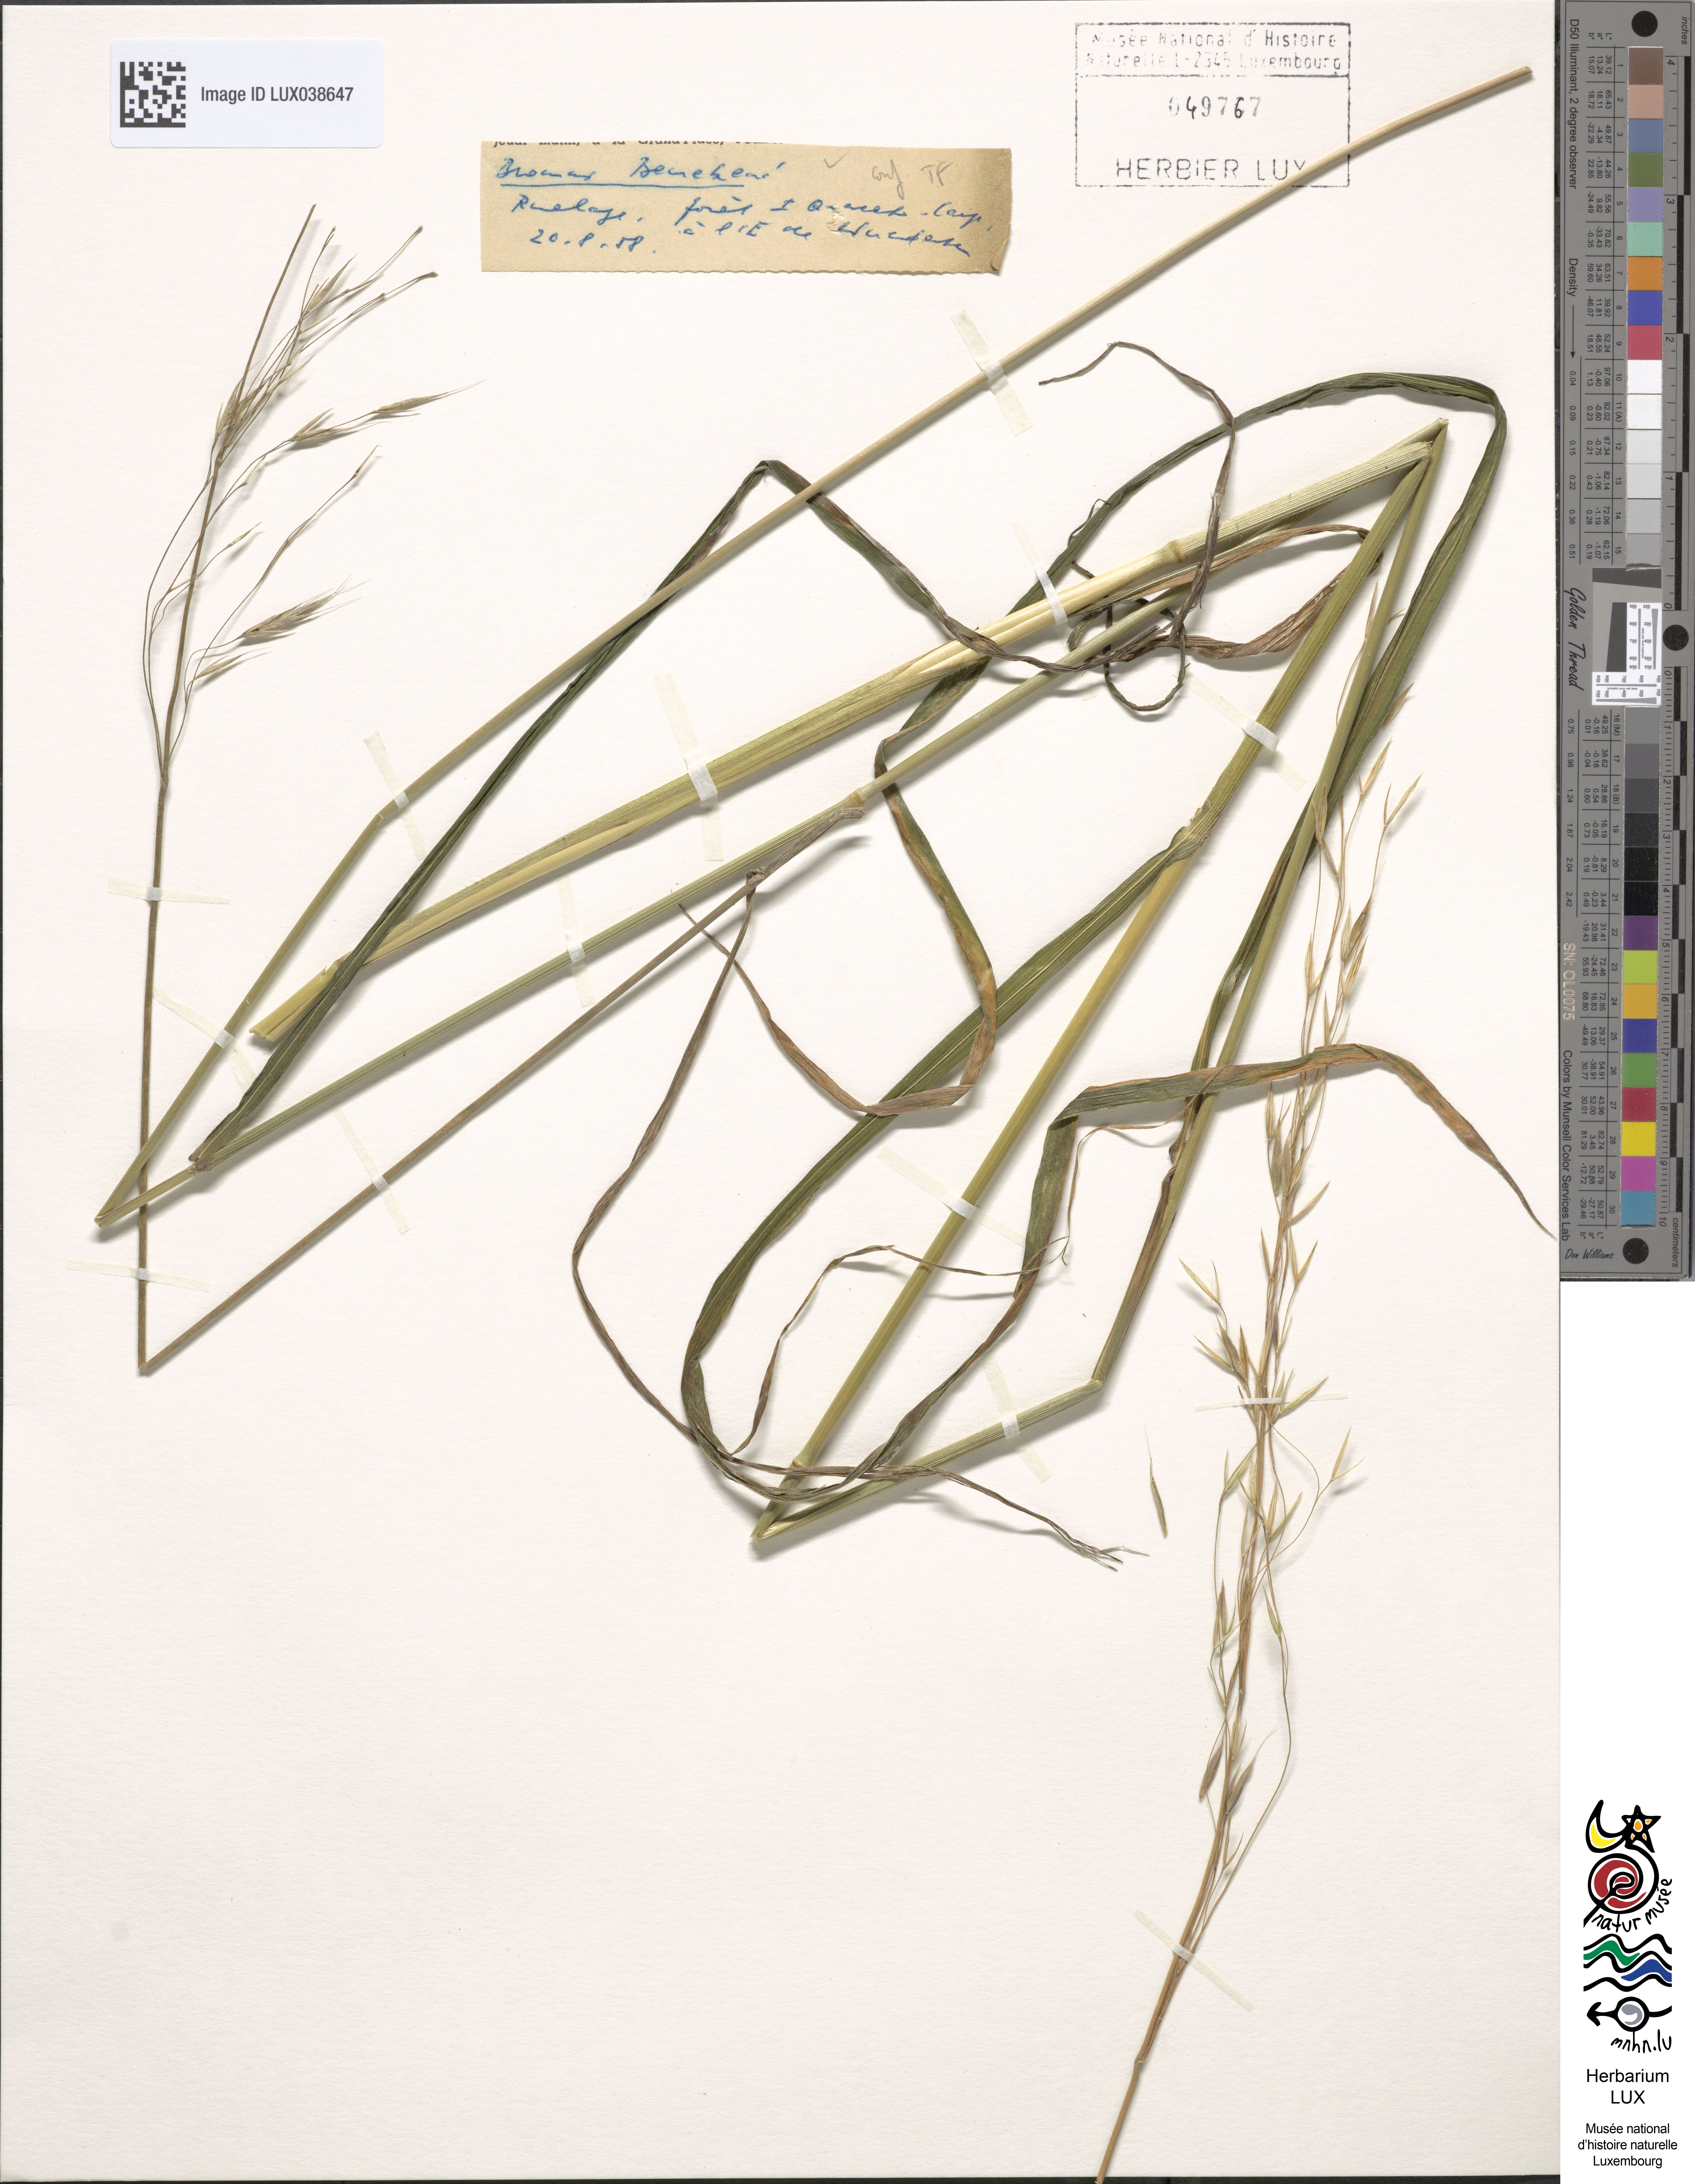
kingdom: Plantae
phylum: Tracheophyta
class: Liliopsida
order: Poales
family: Poaceae
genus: Bromus
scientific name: Bromus benekenii
